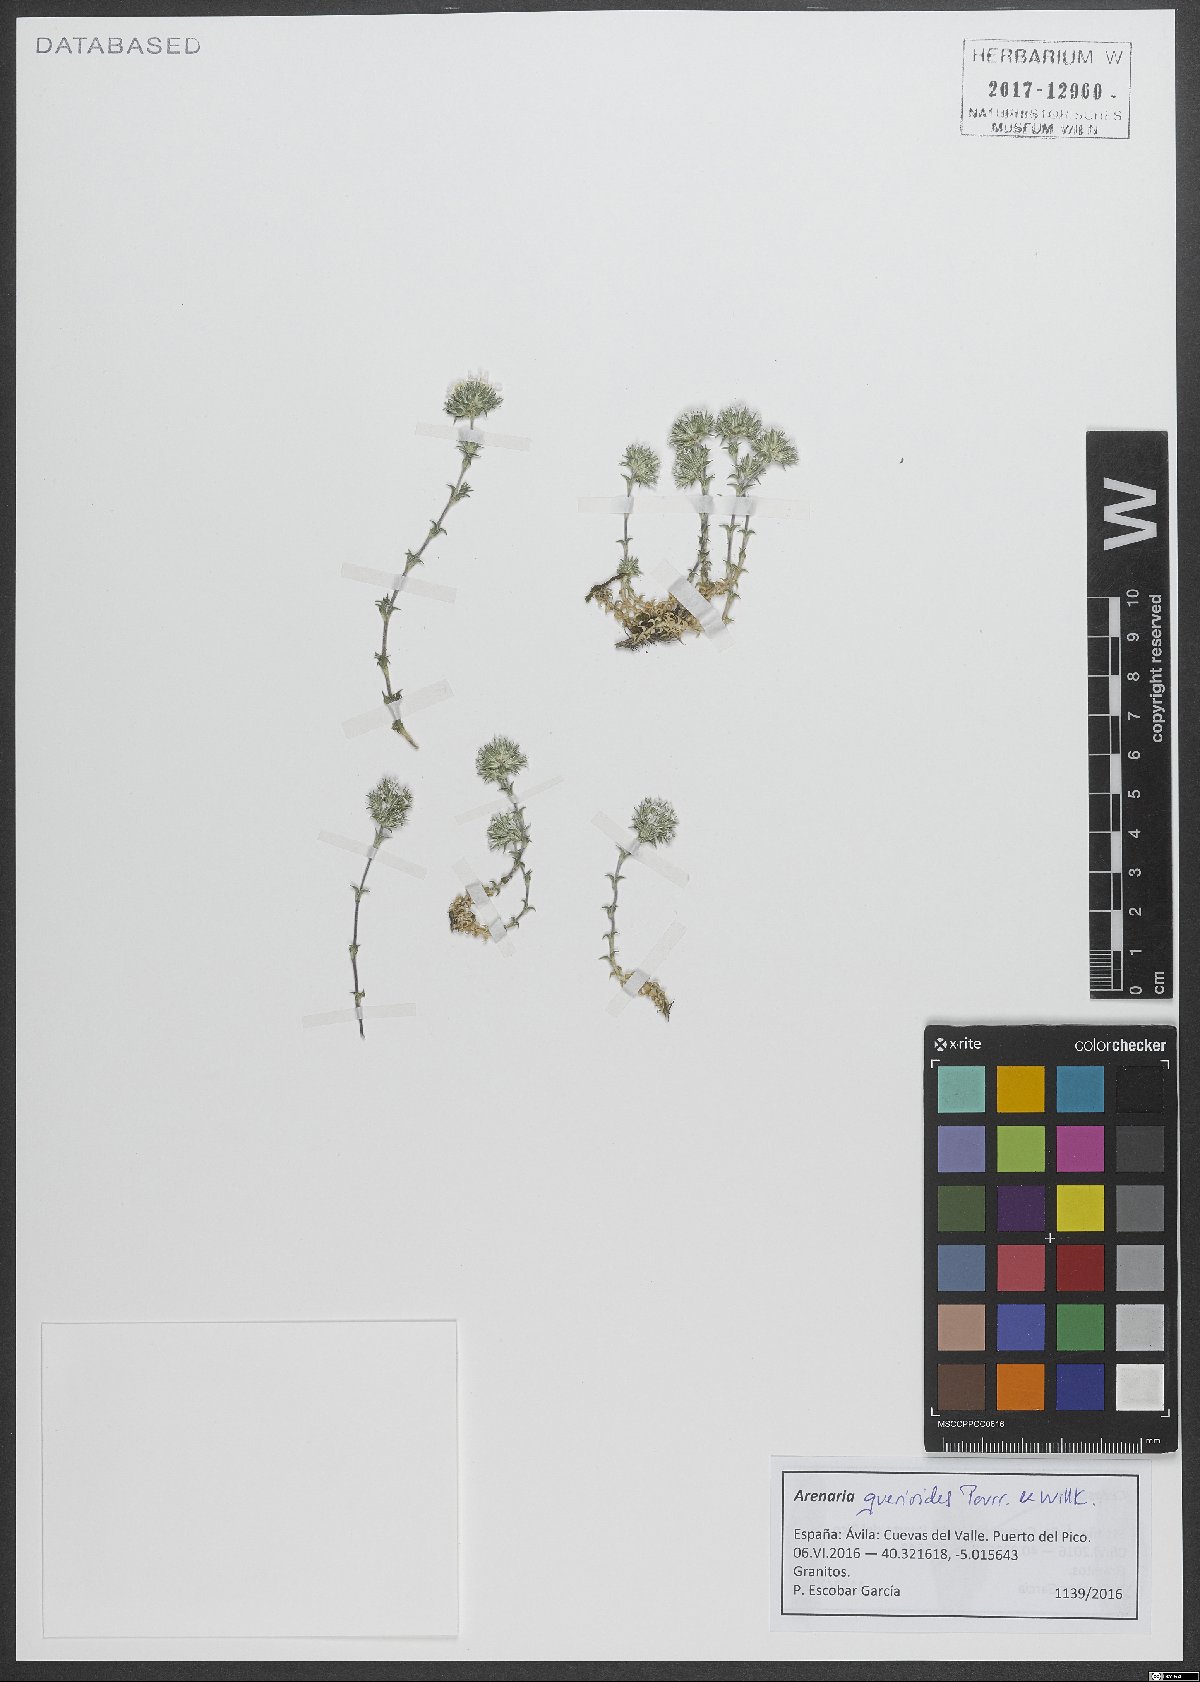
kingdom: Plantae
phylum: Tracheophyta
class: Magnoliopsida
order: Caryophyllales
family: Caryophyllaceae
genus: Arenaria
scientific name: Arenaria querioides
